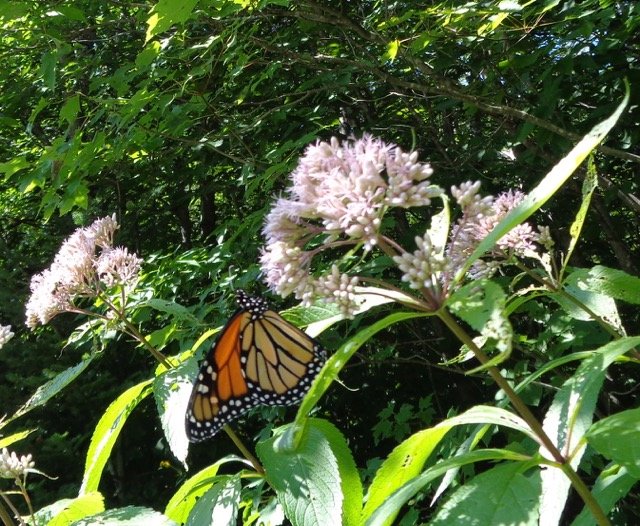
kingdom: Animalia
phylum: Arthropoda
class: Insecta
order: Lepidoptera
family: Nymphalidae
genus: Danaus
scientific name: Danaus plexippus
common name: Monarch
